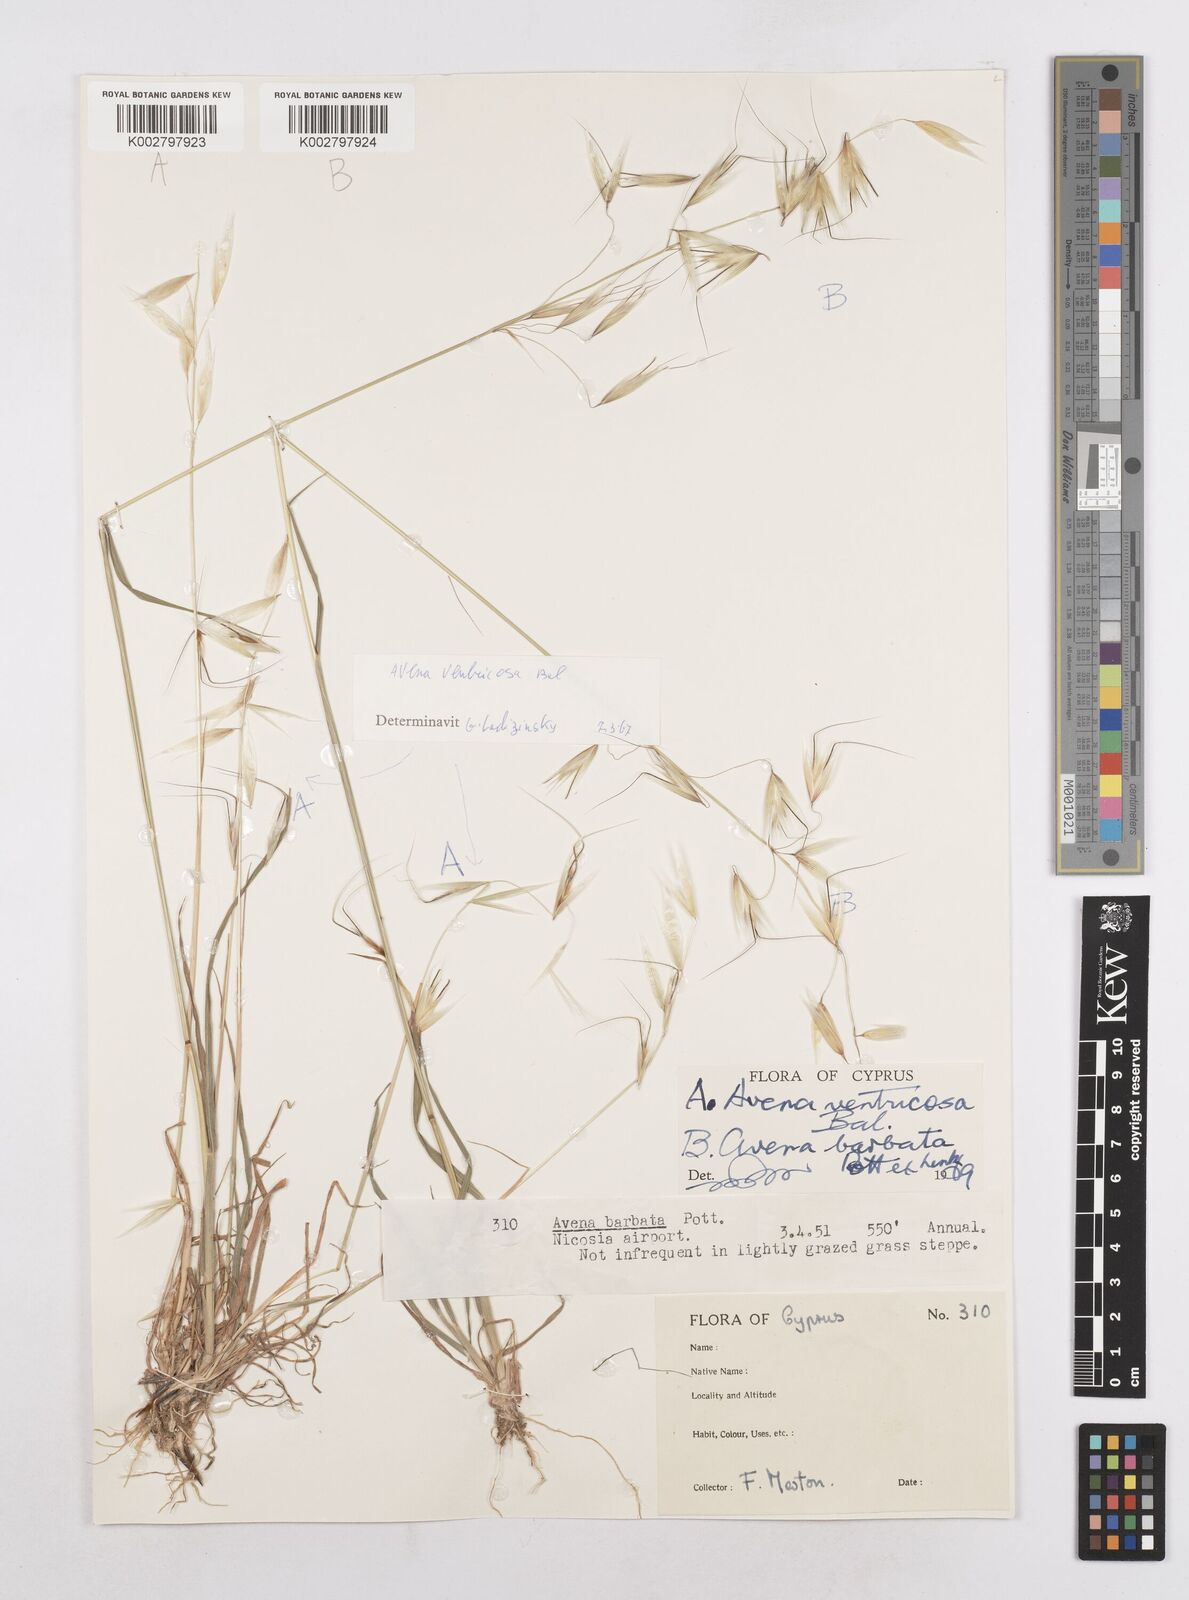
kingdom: Plantae
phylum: Tracheophyta
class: Liliopsida
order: Poales
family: Poaceae
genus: Avena
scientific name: Avena ventricosa
